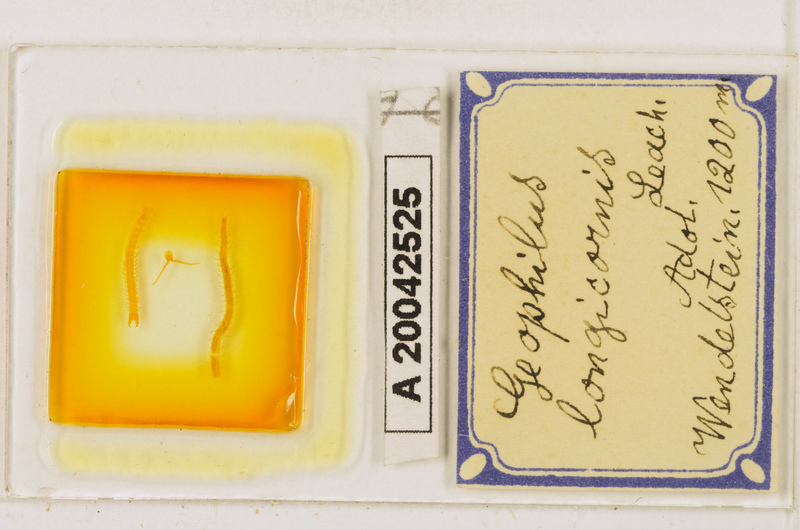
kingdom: Animalia
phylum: Arthropoda
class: Chilopoda
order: Geophilomorpha
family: Geophilidae
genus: Geophilus
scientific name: Geophilus flavus
